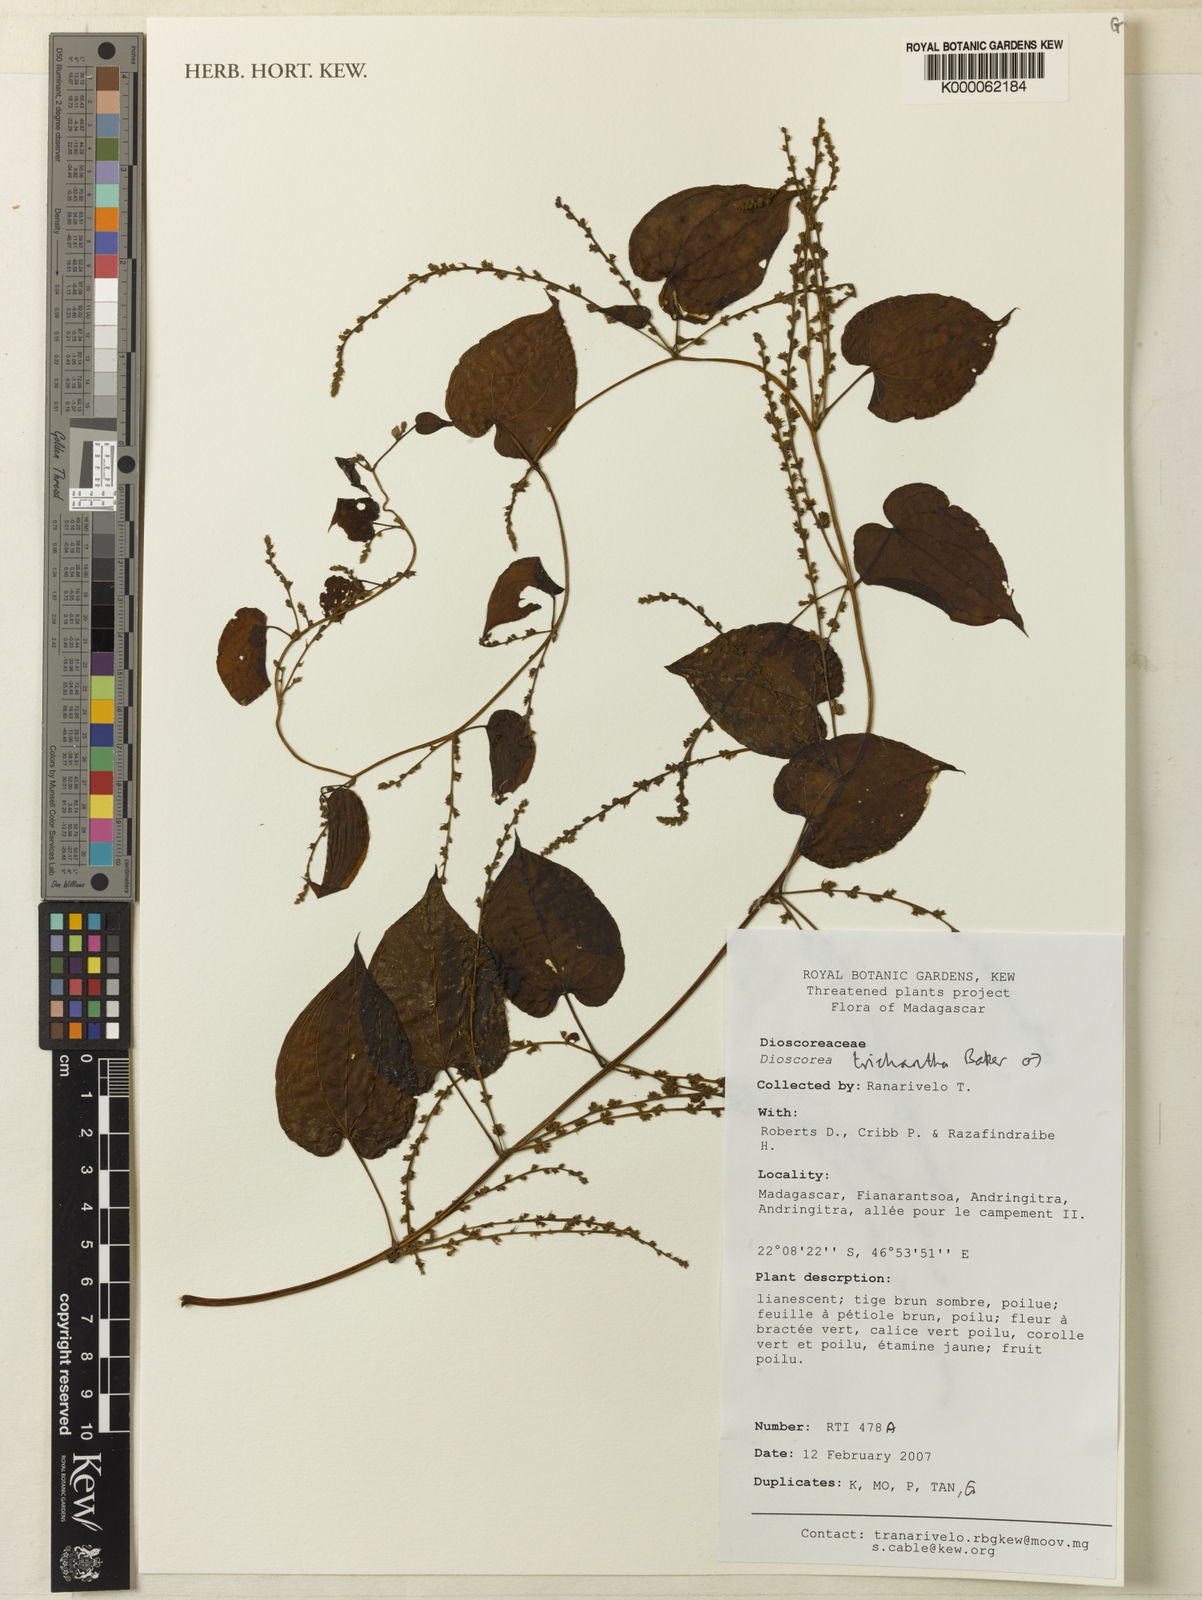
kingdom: Plantae
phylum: Tracheophyta
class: Liliopsida
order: Dioscoreales
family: Dioscoreaceae
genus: Dioscorea
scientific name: Dioscorea trichantha
